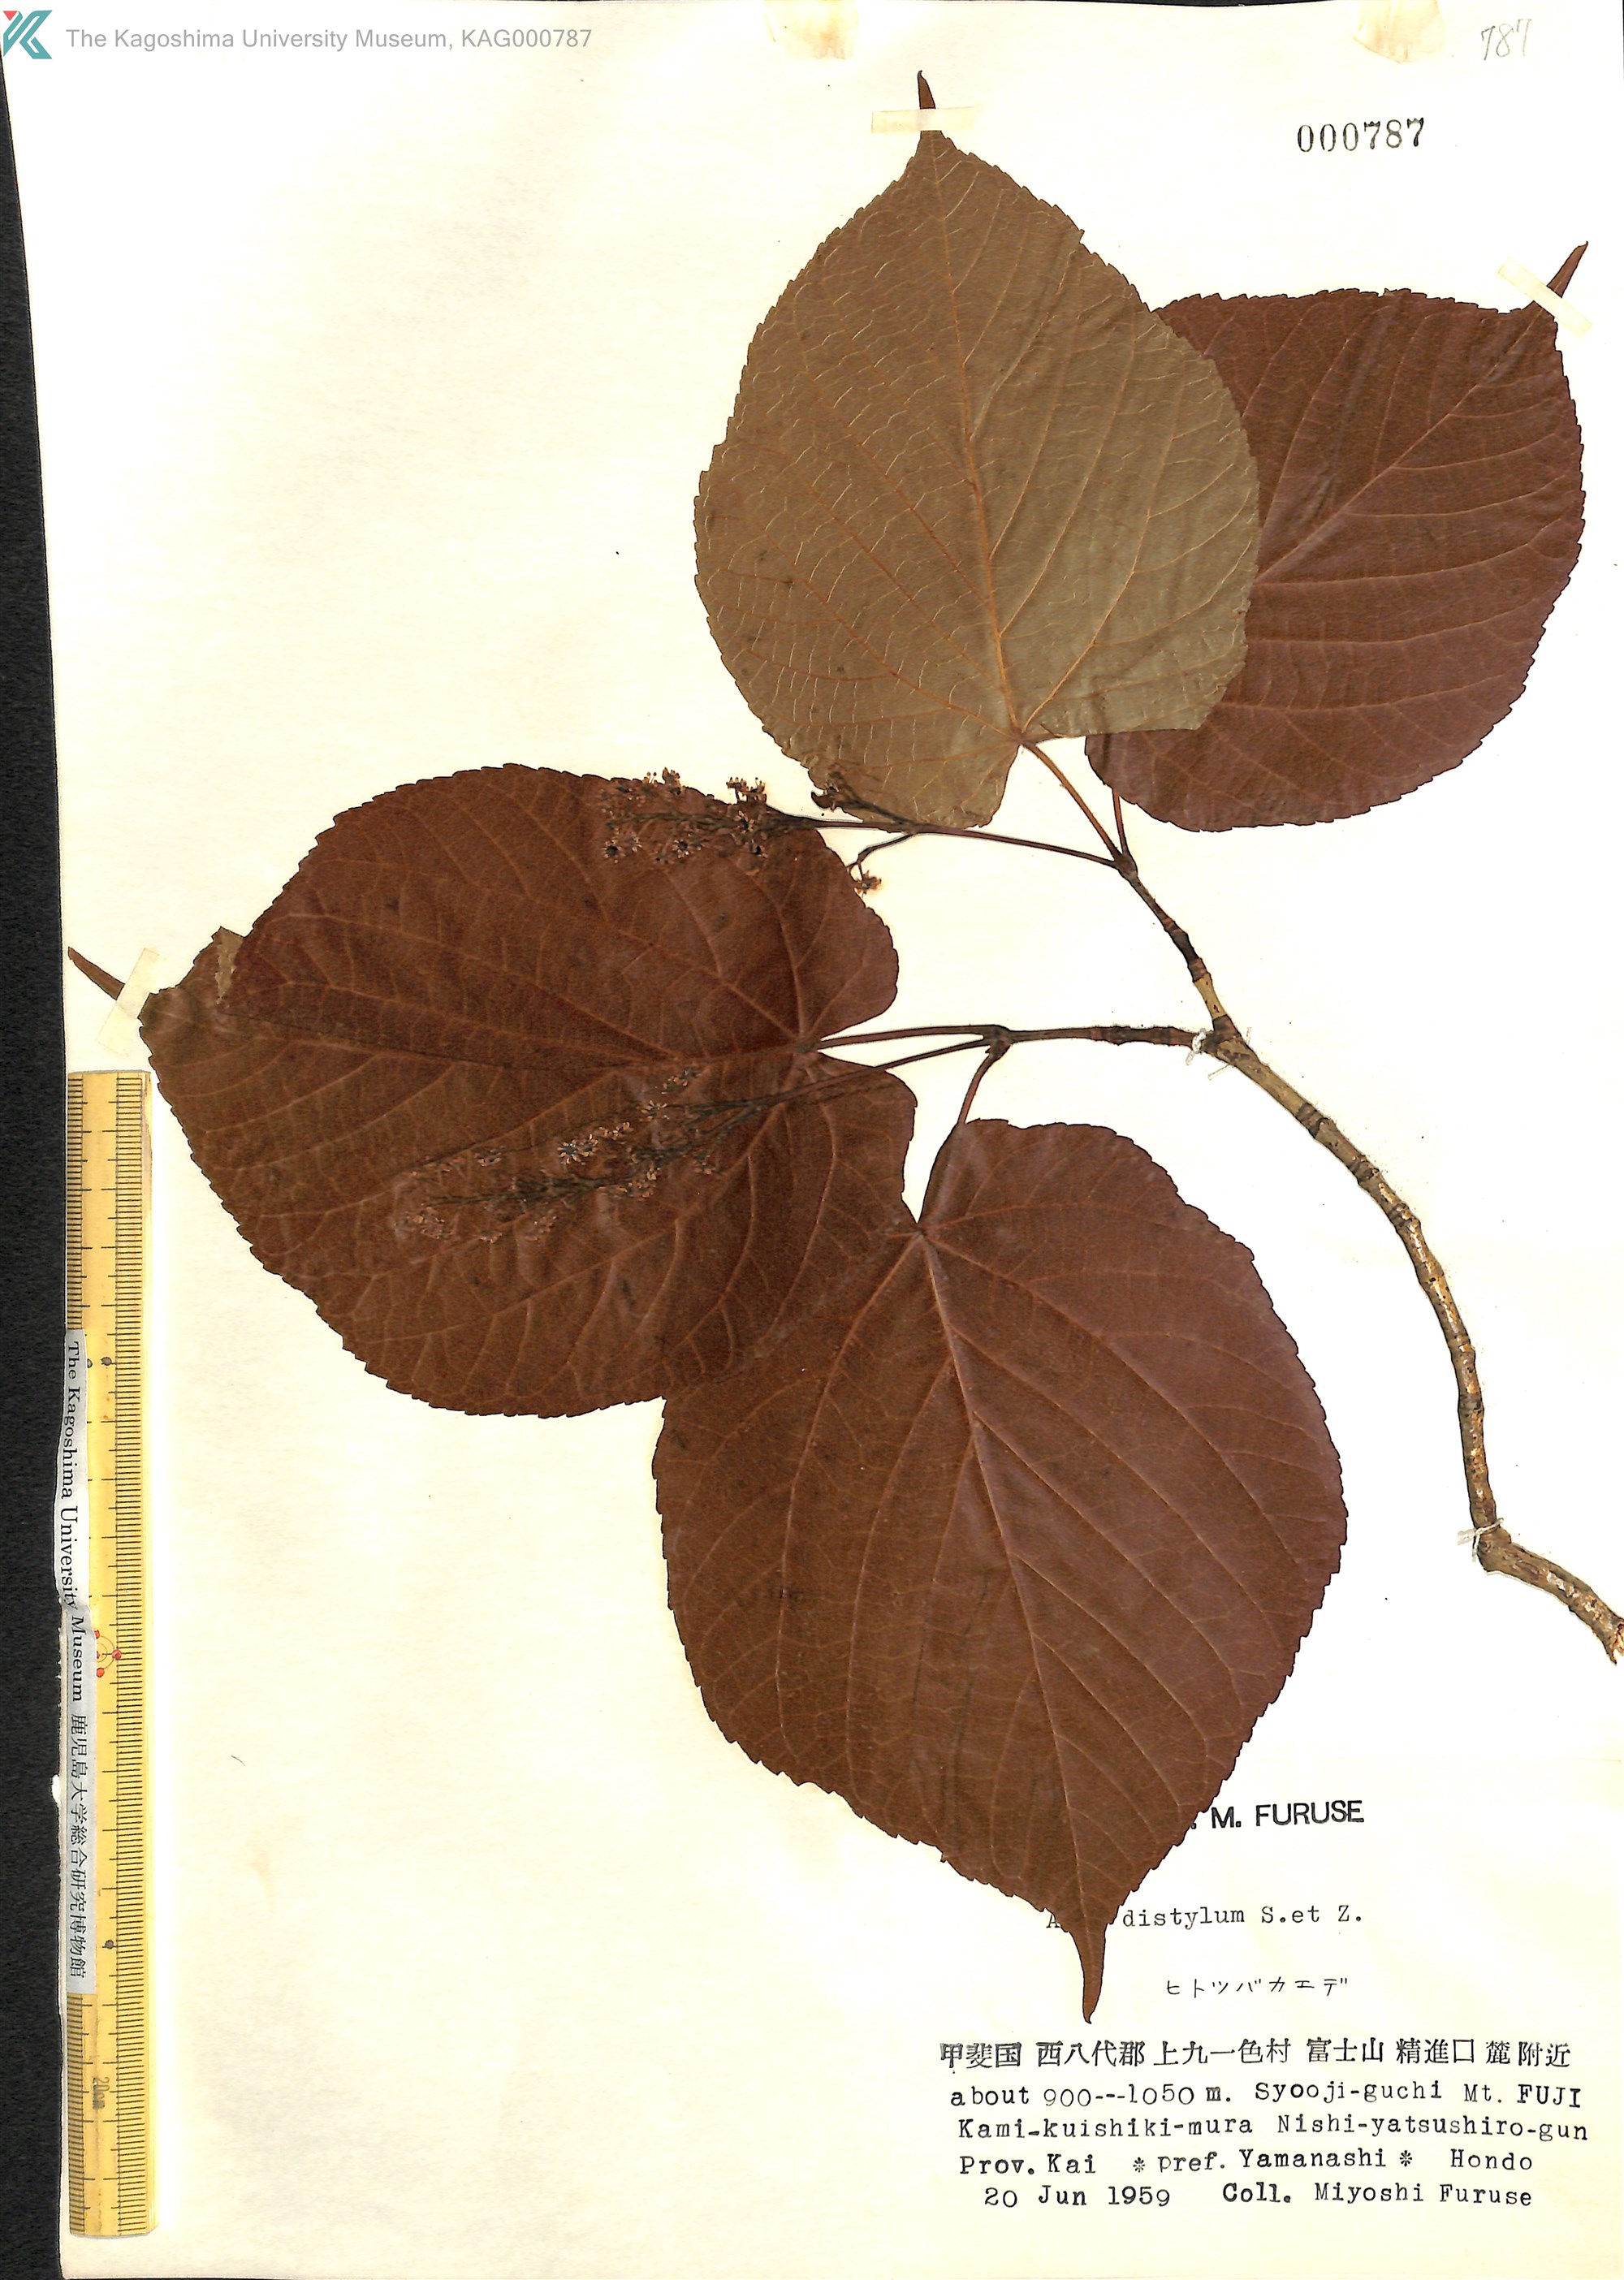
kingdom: Plantae
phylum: Tracheophyta
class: Magnoliopsida
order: Sapindales
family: Sapindaceae
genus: Acer
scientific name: Acer distylum
